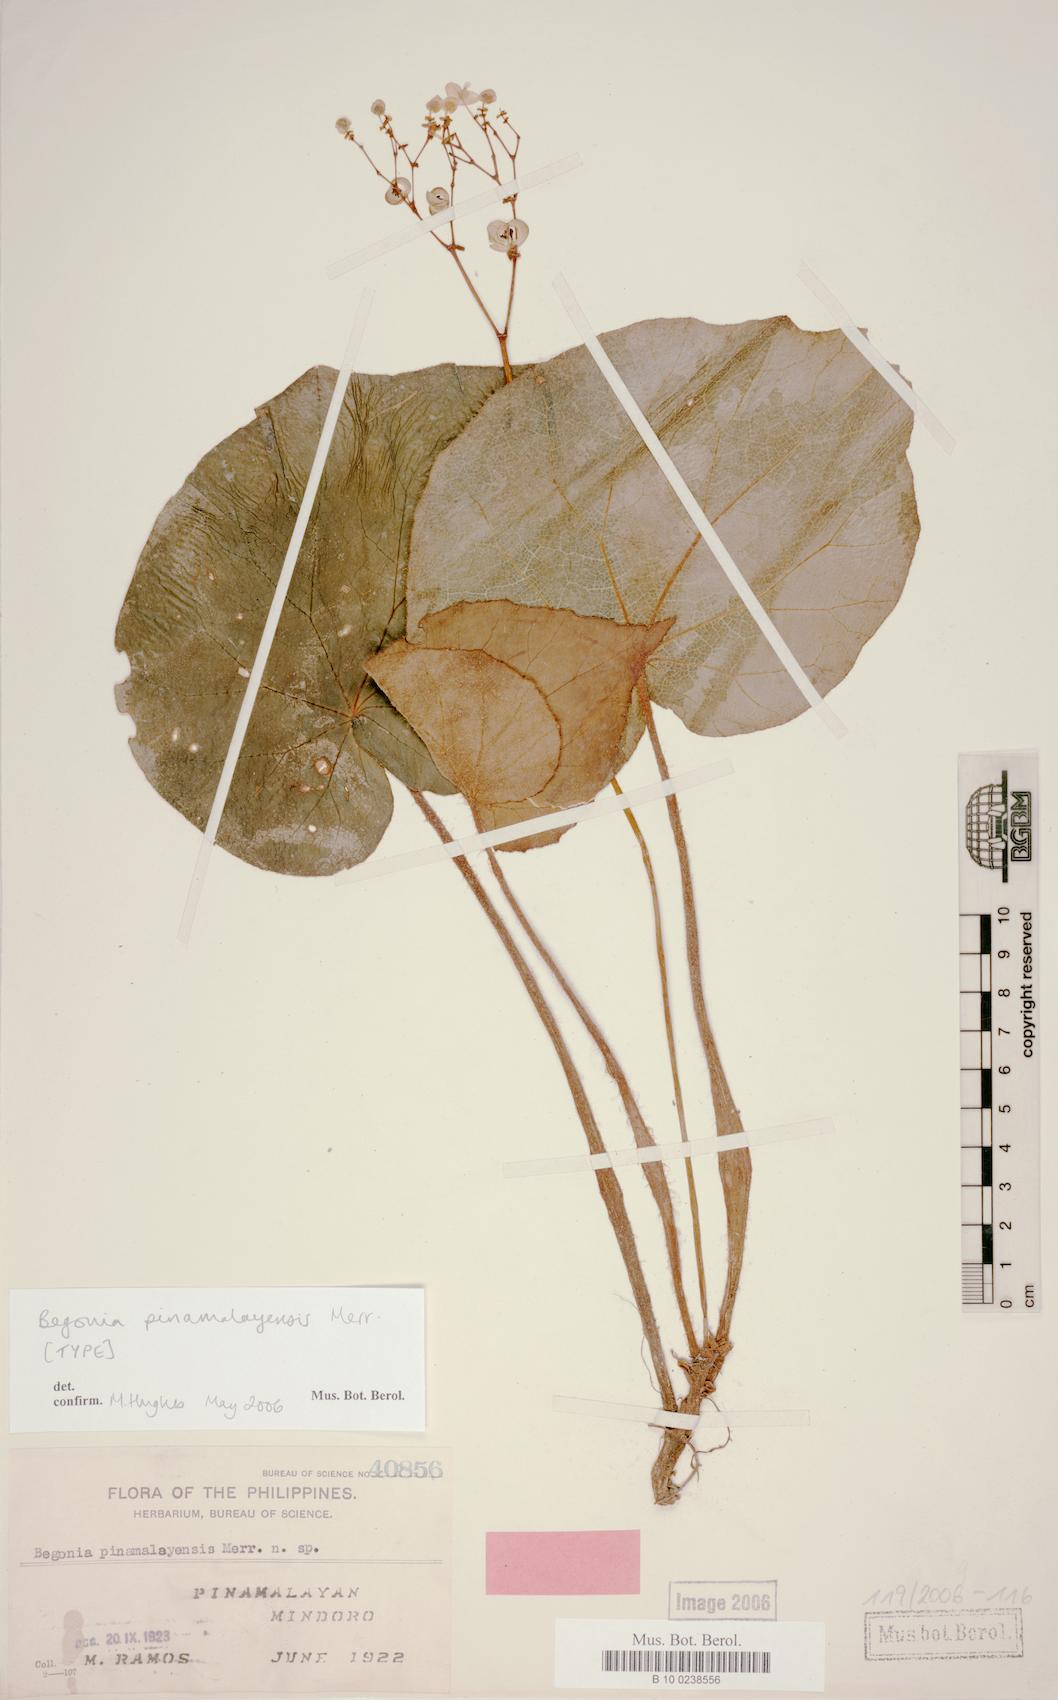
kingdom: Plantae
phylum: Tracheophyta
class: Magnoliopsida
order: Cucurbitales
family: Begoniaceae
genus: Begonia
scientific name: Begonia mindorensis
